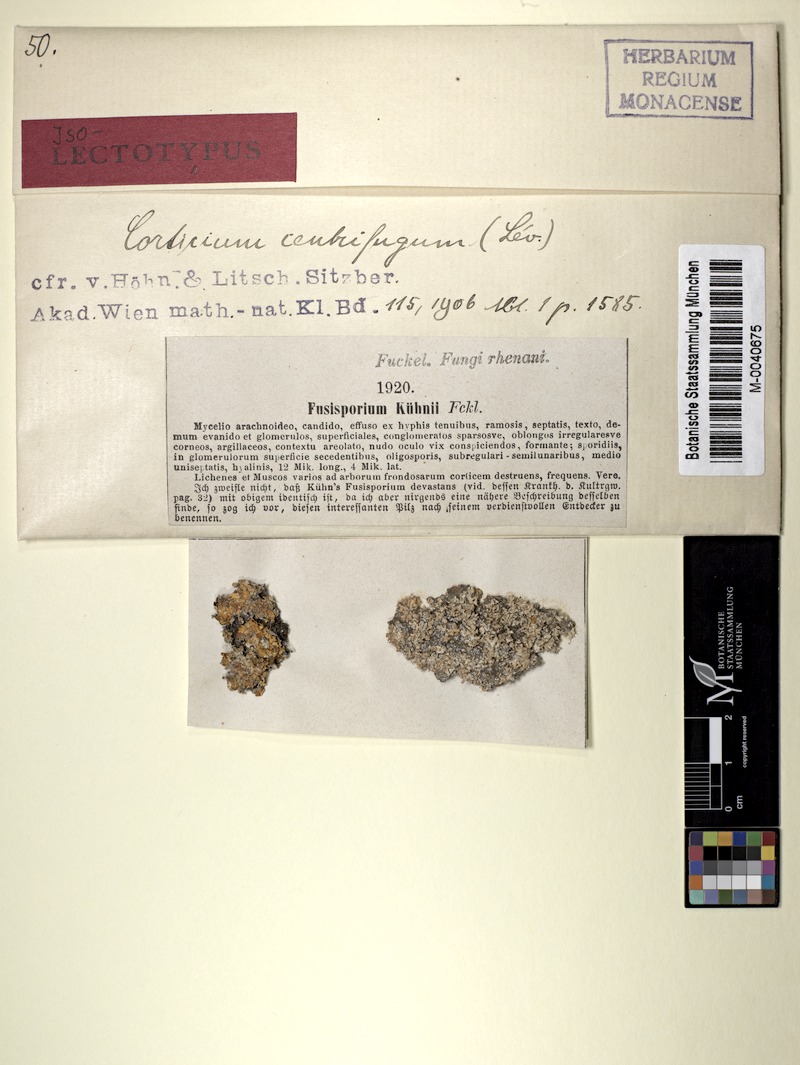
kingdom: Fungi
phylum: Basidiomycota
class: Agaricomycetes
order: Atheliales
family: Atheliaceae
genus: Athelia
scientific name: Athelia arachnoidea
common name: Candelabra duster
